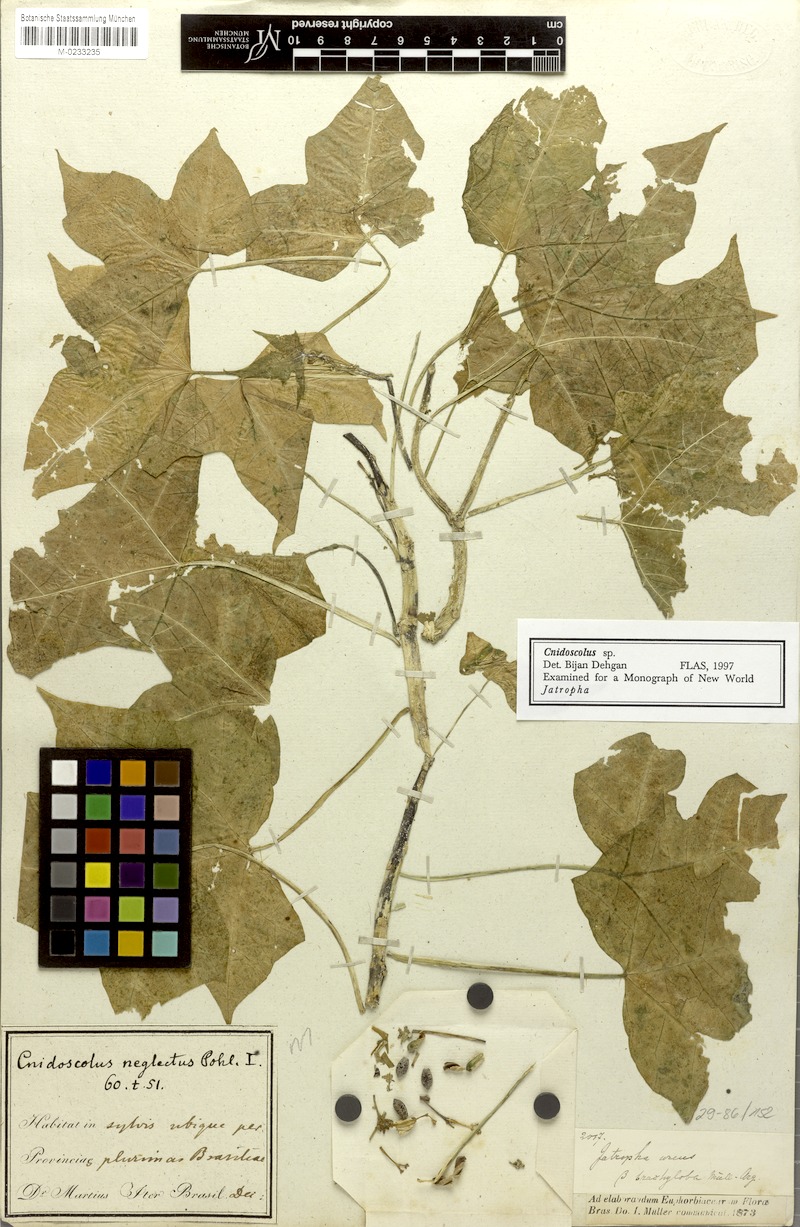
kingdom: Plantae
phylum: Tracheophyta
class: Magnoliopsida
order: Malpighiales
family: Euphorbiaceae
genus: Cnidoscolus
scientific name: Cnidoscolus neglectus
